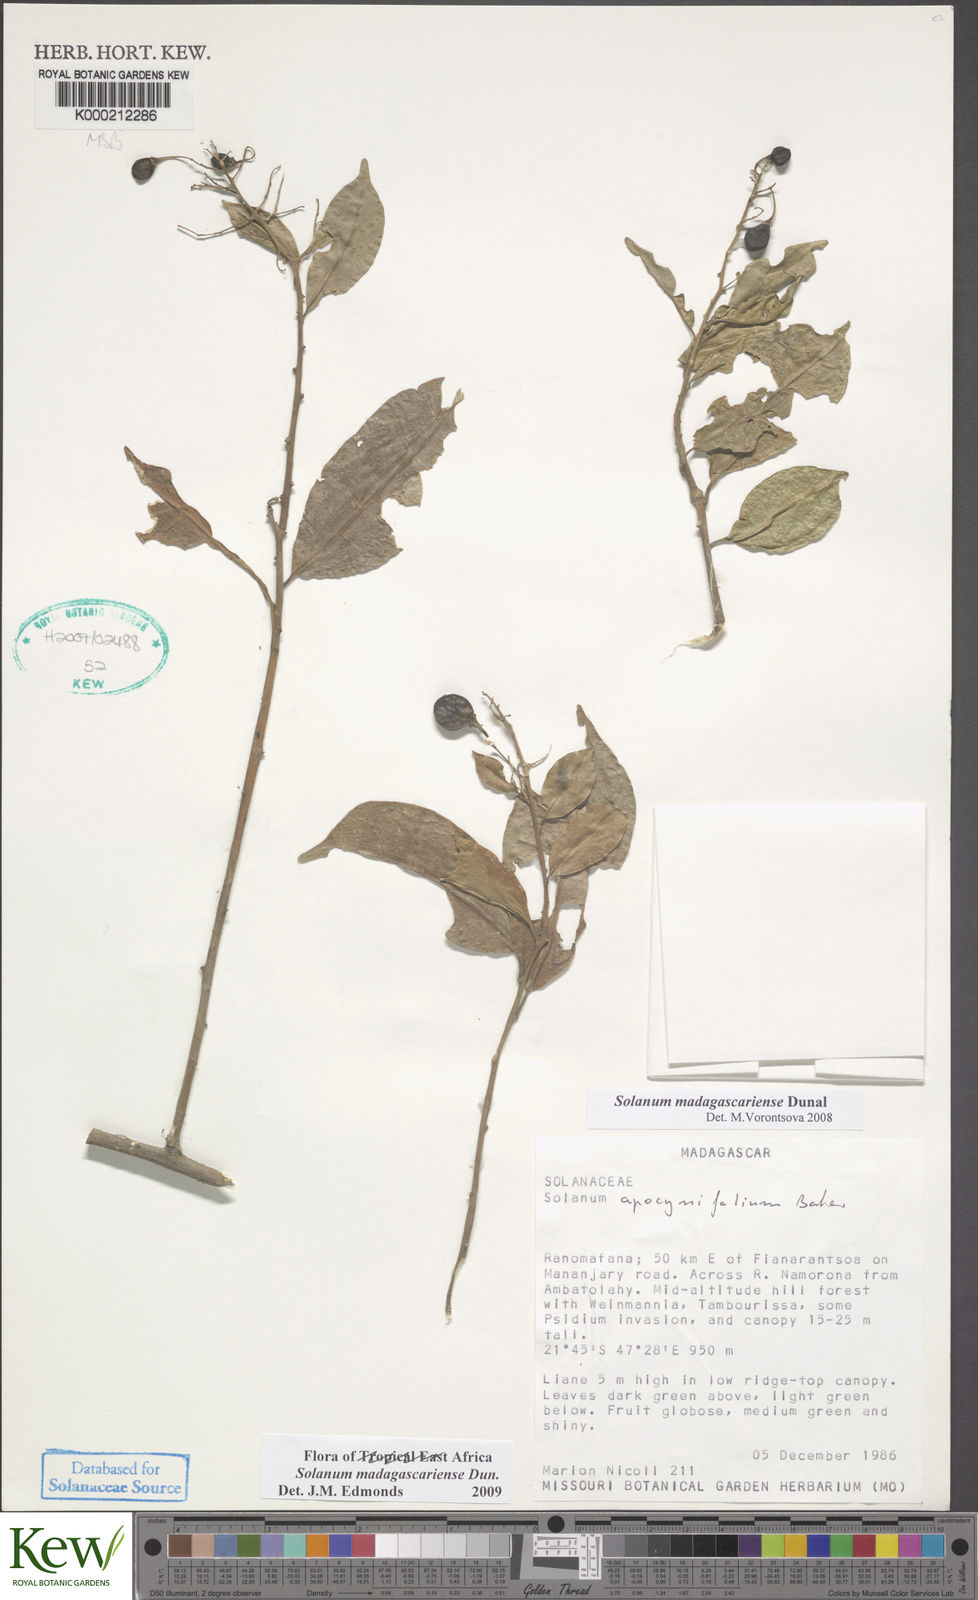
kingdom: Plantae
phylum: Tracheophyta
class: Magnoliopsida
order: Solanales
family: Solanaceae
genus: Solanum
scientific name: Solanum madagascariense
